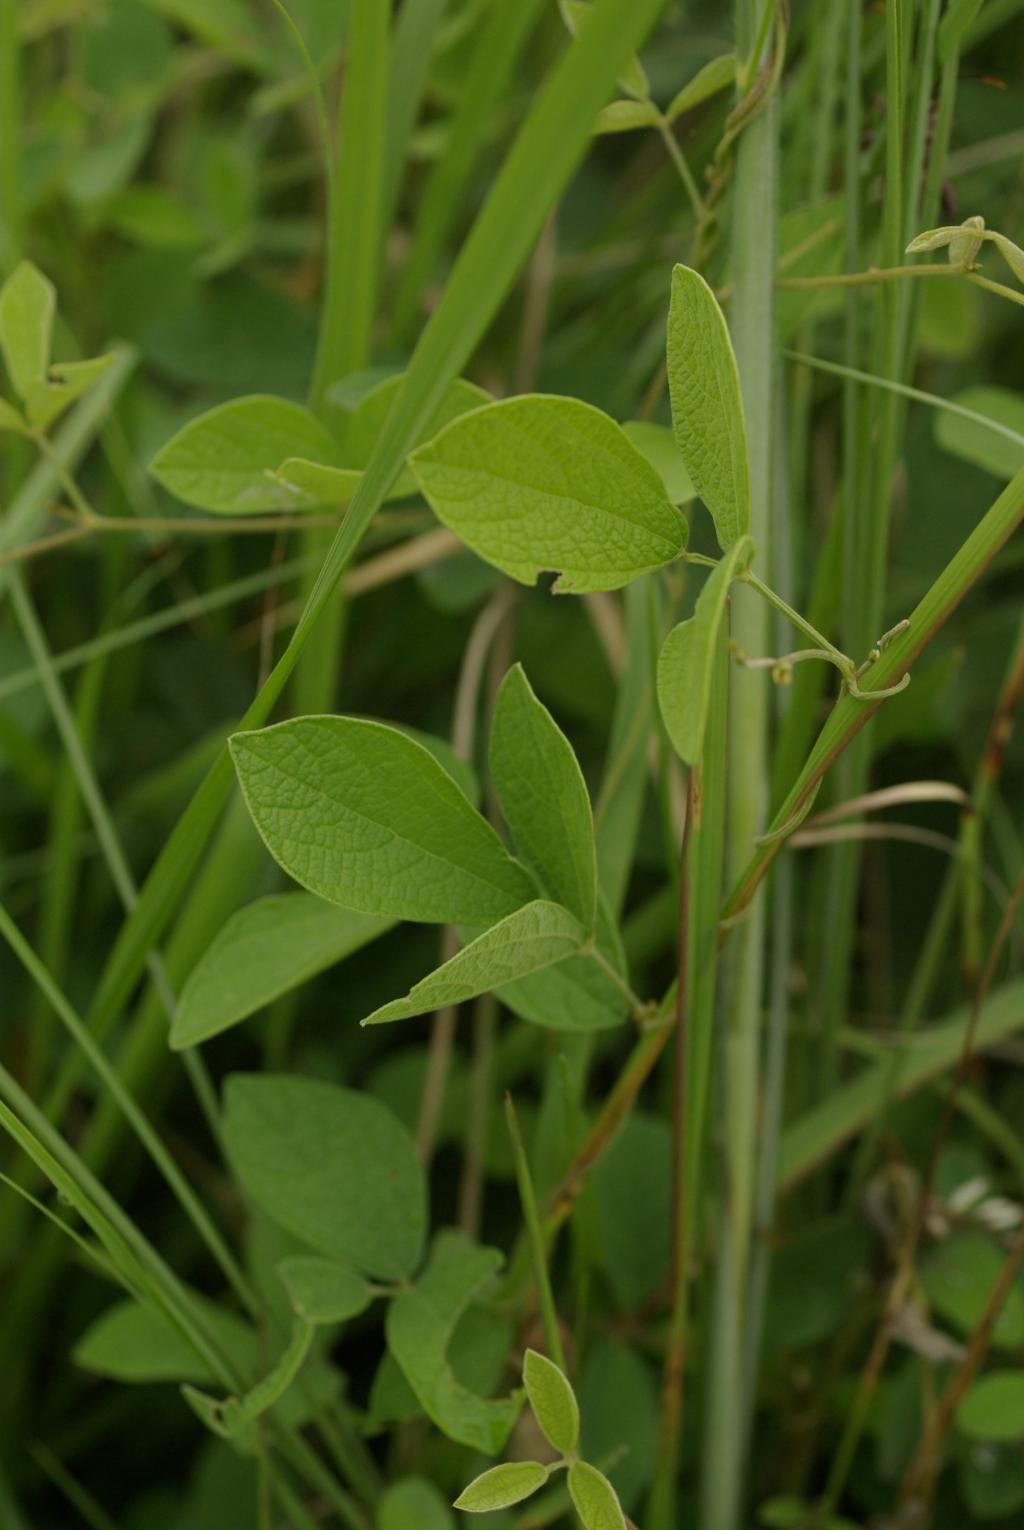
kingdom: Plantae
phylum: Tracheophyta
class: Magnoliopsida
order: Fabales
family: Fabaceae
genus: Cajanus
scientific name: Cajanus scarabaeoides
